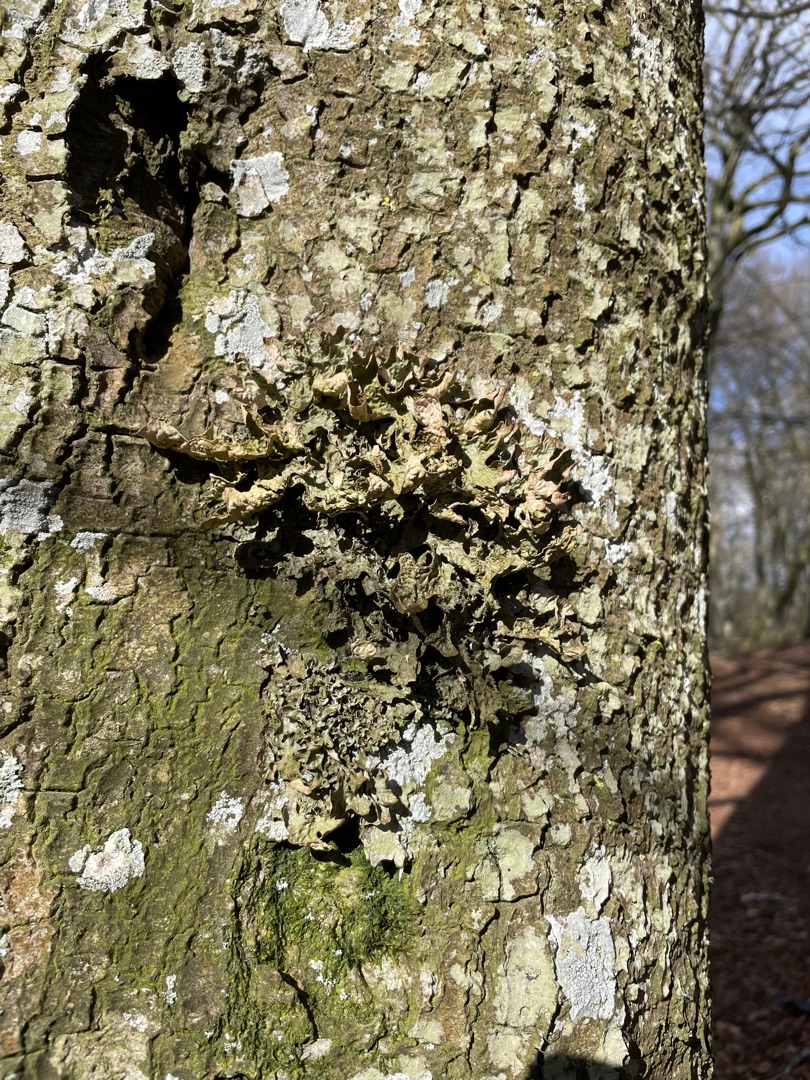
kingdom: Fungi
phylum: Ascomycota
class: Lecanoromycetes
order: Peltigerales
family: Lobariaceae
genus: Lobaria
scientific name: Lobaria pulmonaria
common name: Almindelig lungelav
